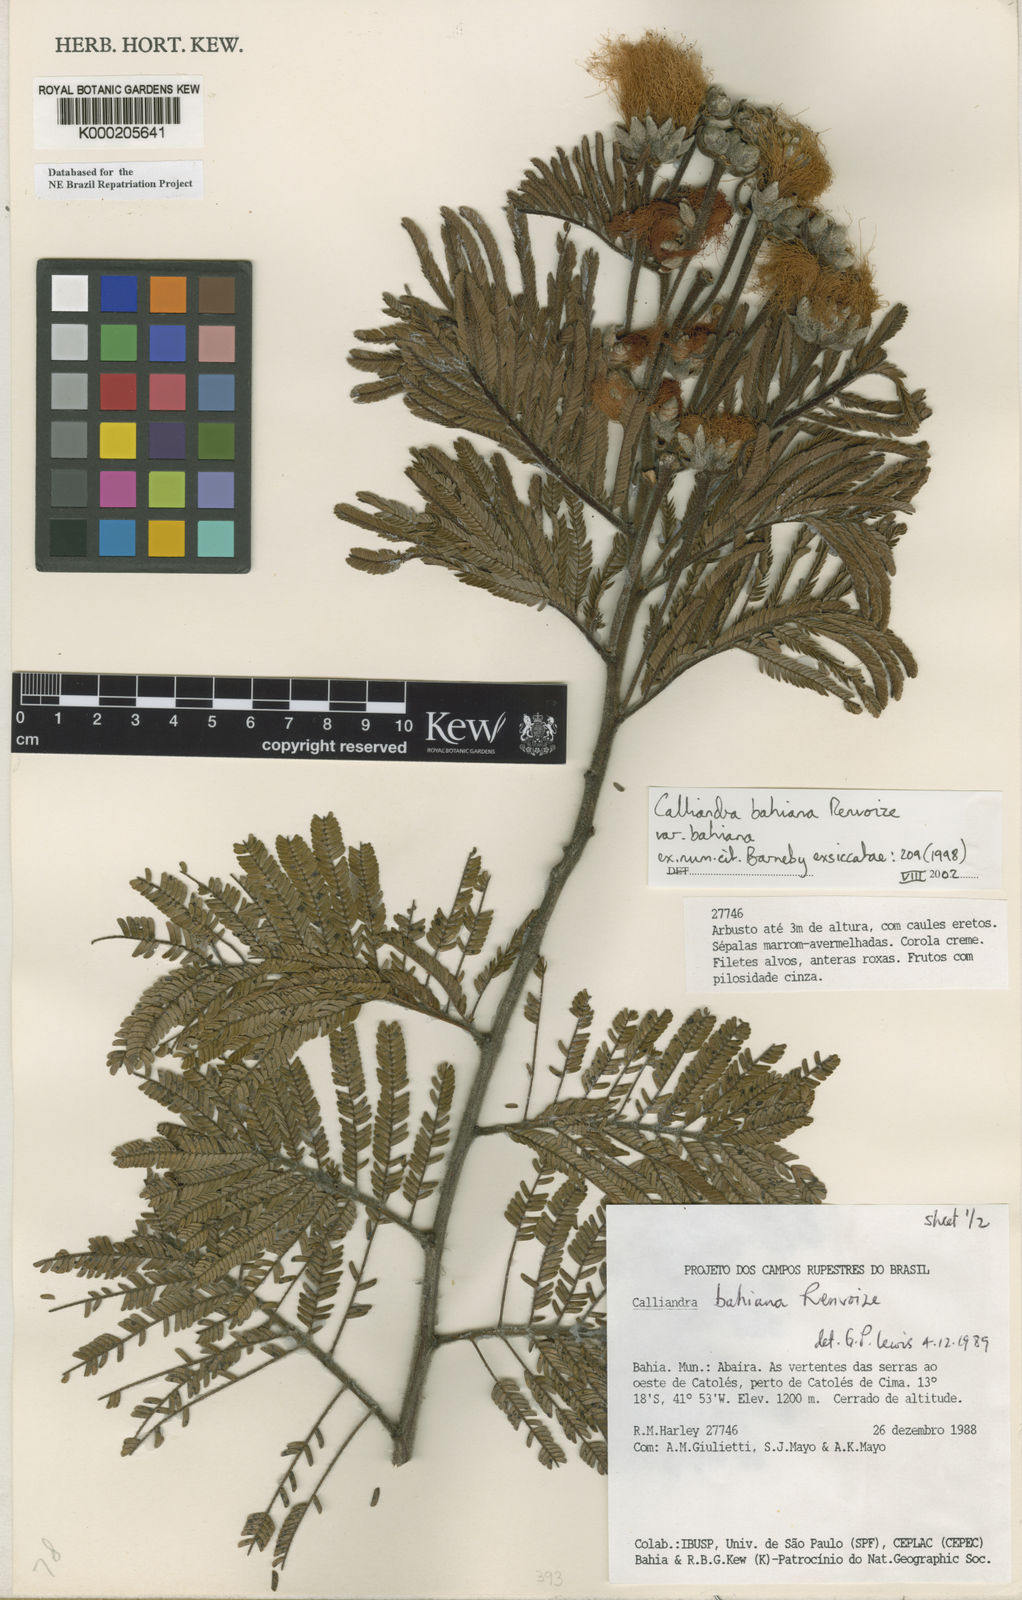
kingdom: Plantae
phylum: Tracheophyta
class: Magnoliopsida
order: Fabales
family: Fabaceae
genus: Calliandra
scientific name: Calliandra bahiana
